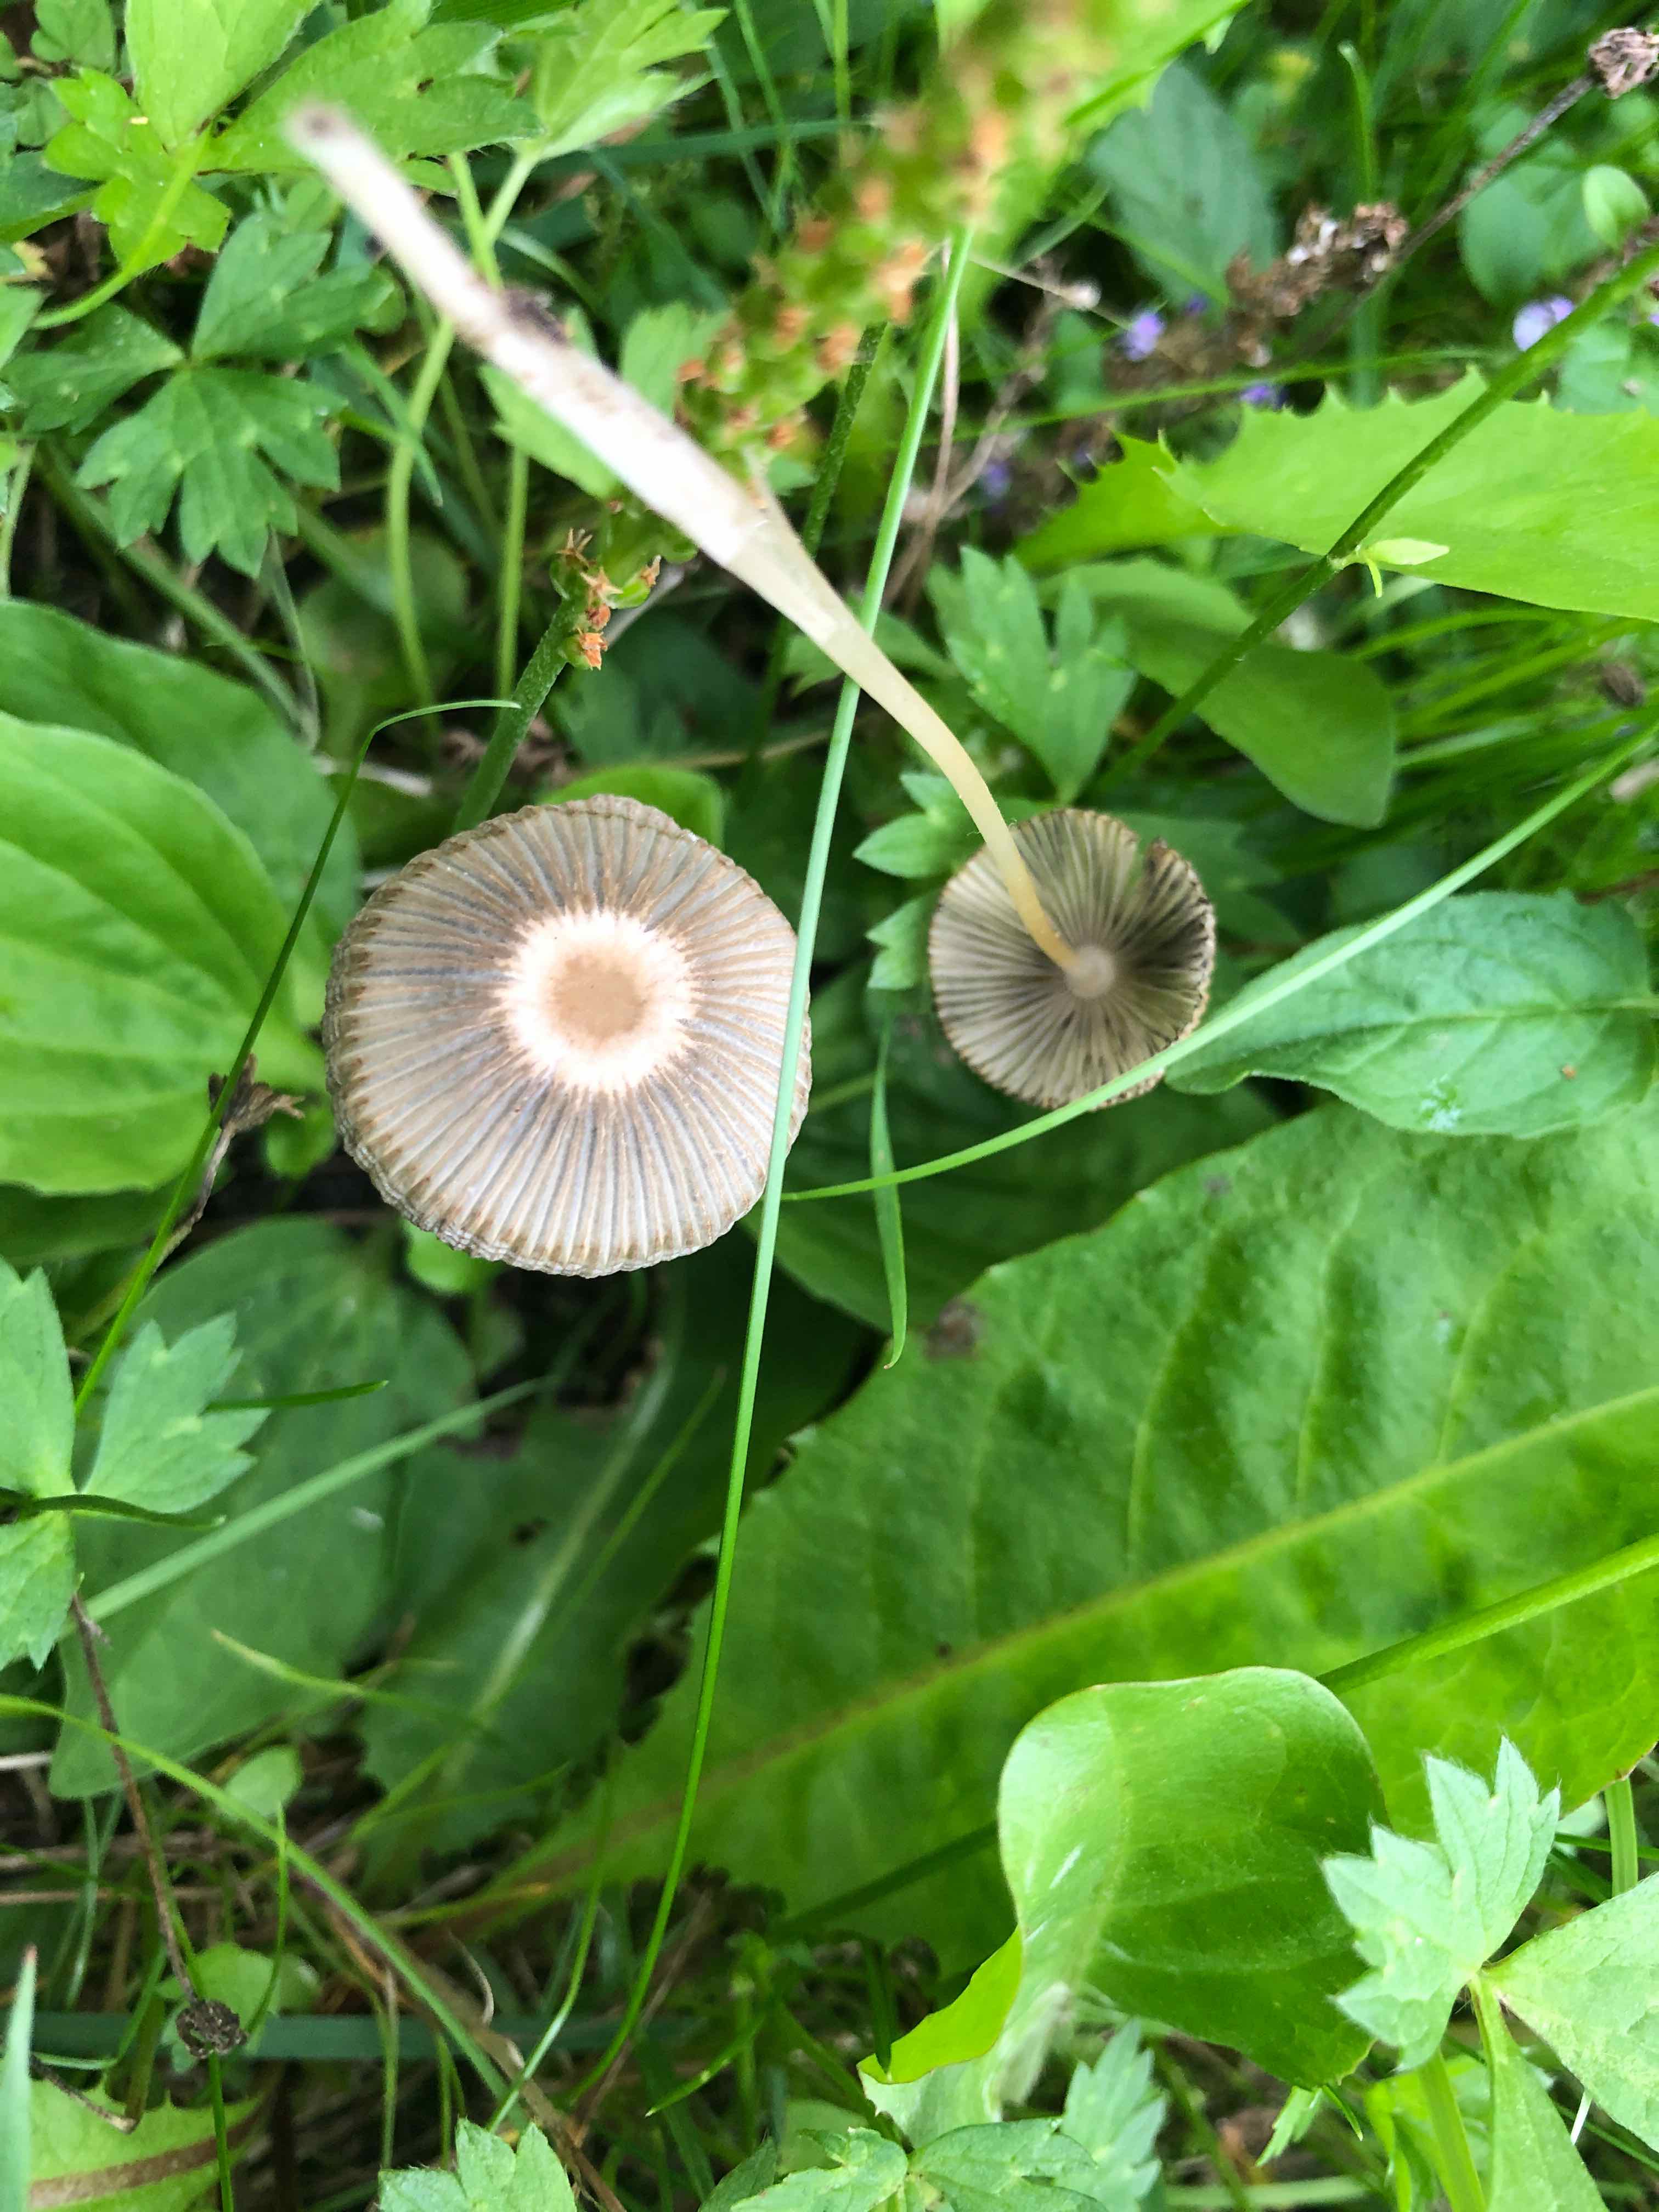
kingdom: Fungi
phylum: Basidiomycota
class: Agaricomycetes
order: Agaricales
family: Psathyrellaceae
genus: Parasola
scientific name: Parasola plicatilis
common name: plæne-hjulhat
